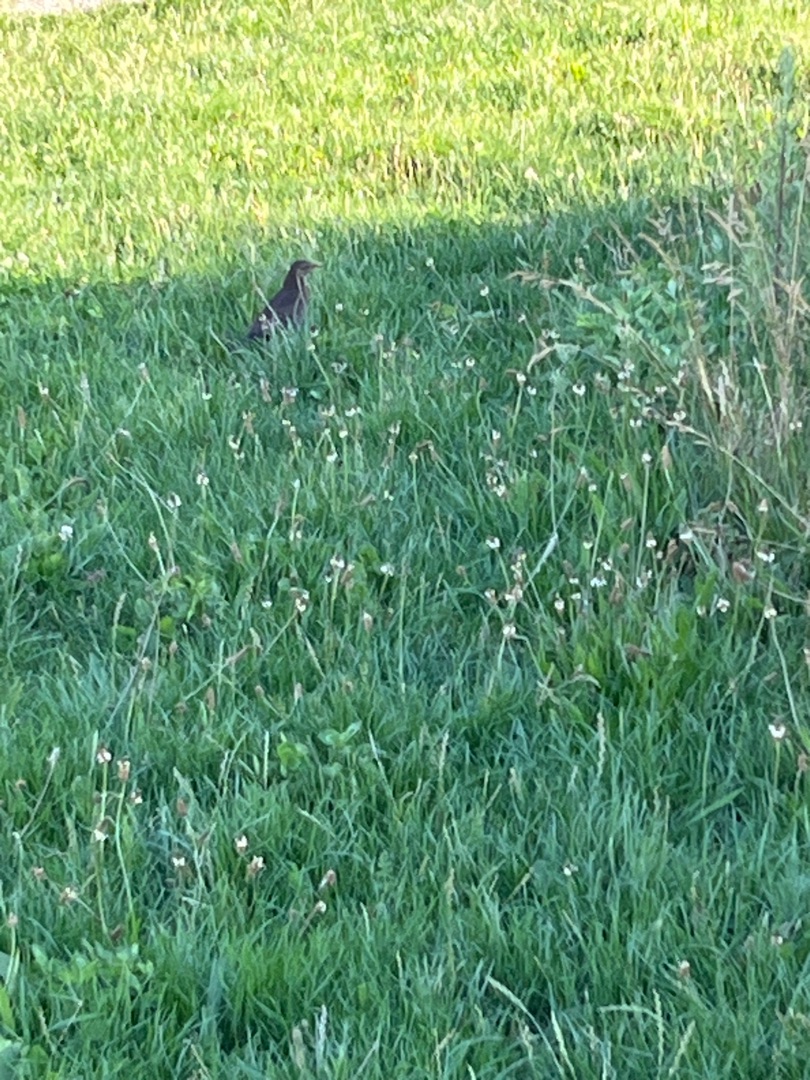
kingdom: Animalia
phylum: Chordata
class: Aves
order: Passeriformes
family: Turdidae
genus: Turdus
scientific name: Turdus merula
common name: Solsort
